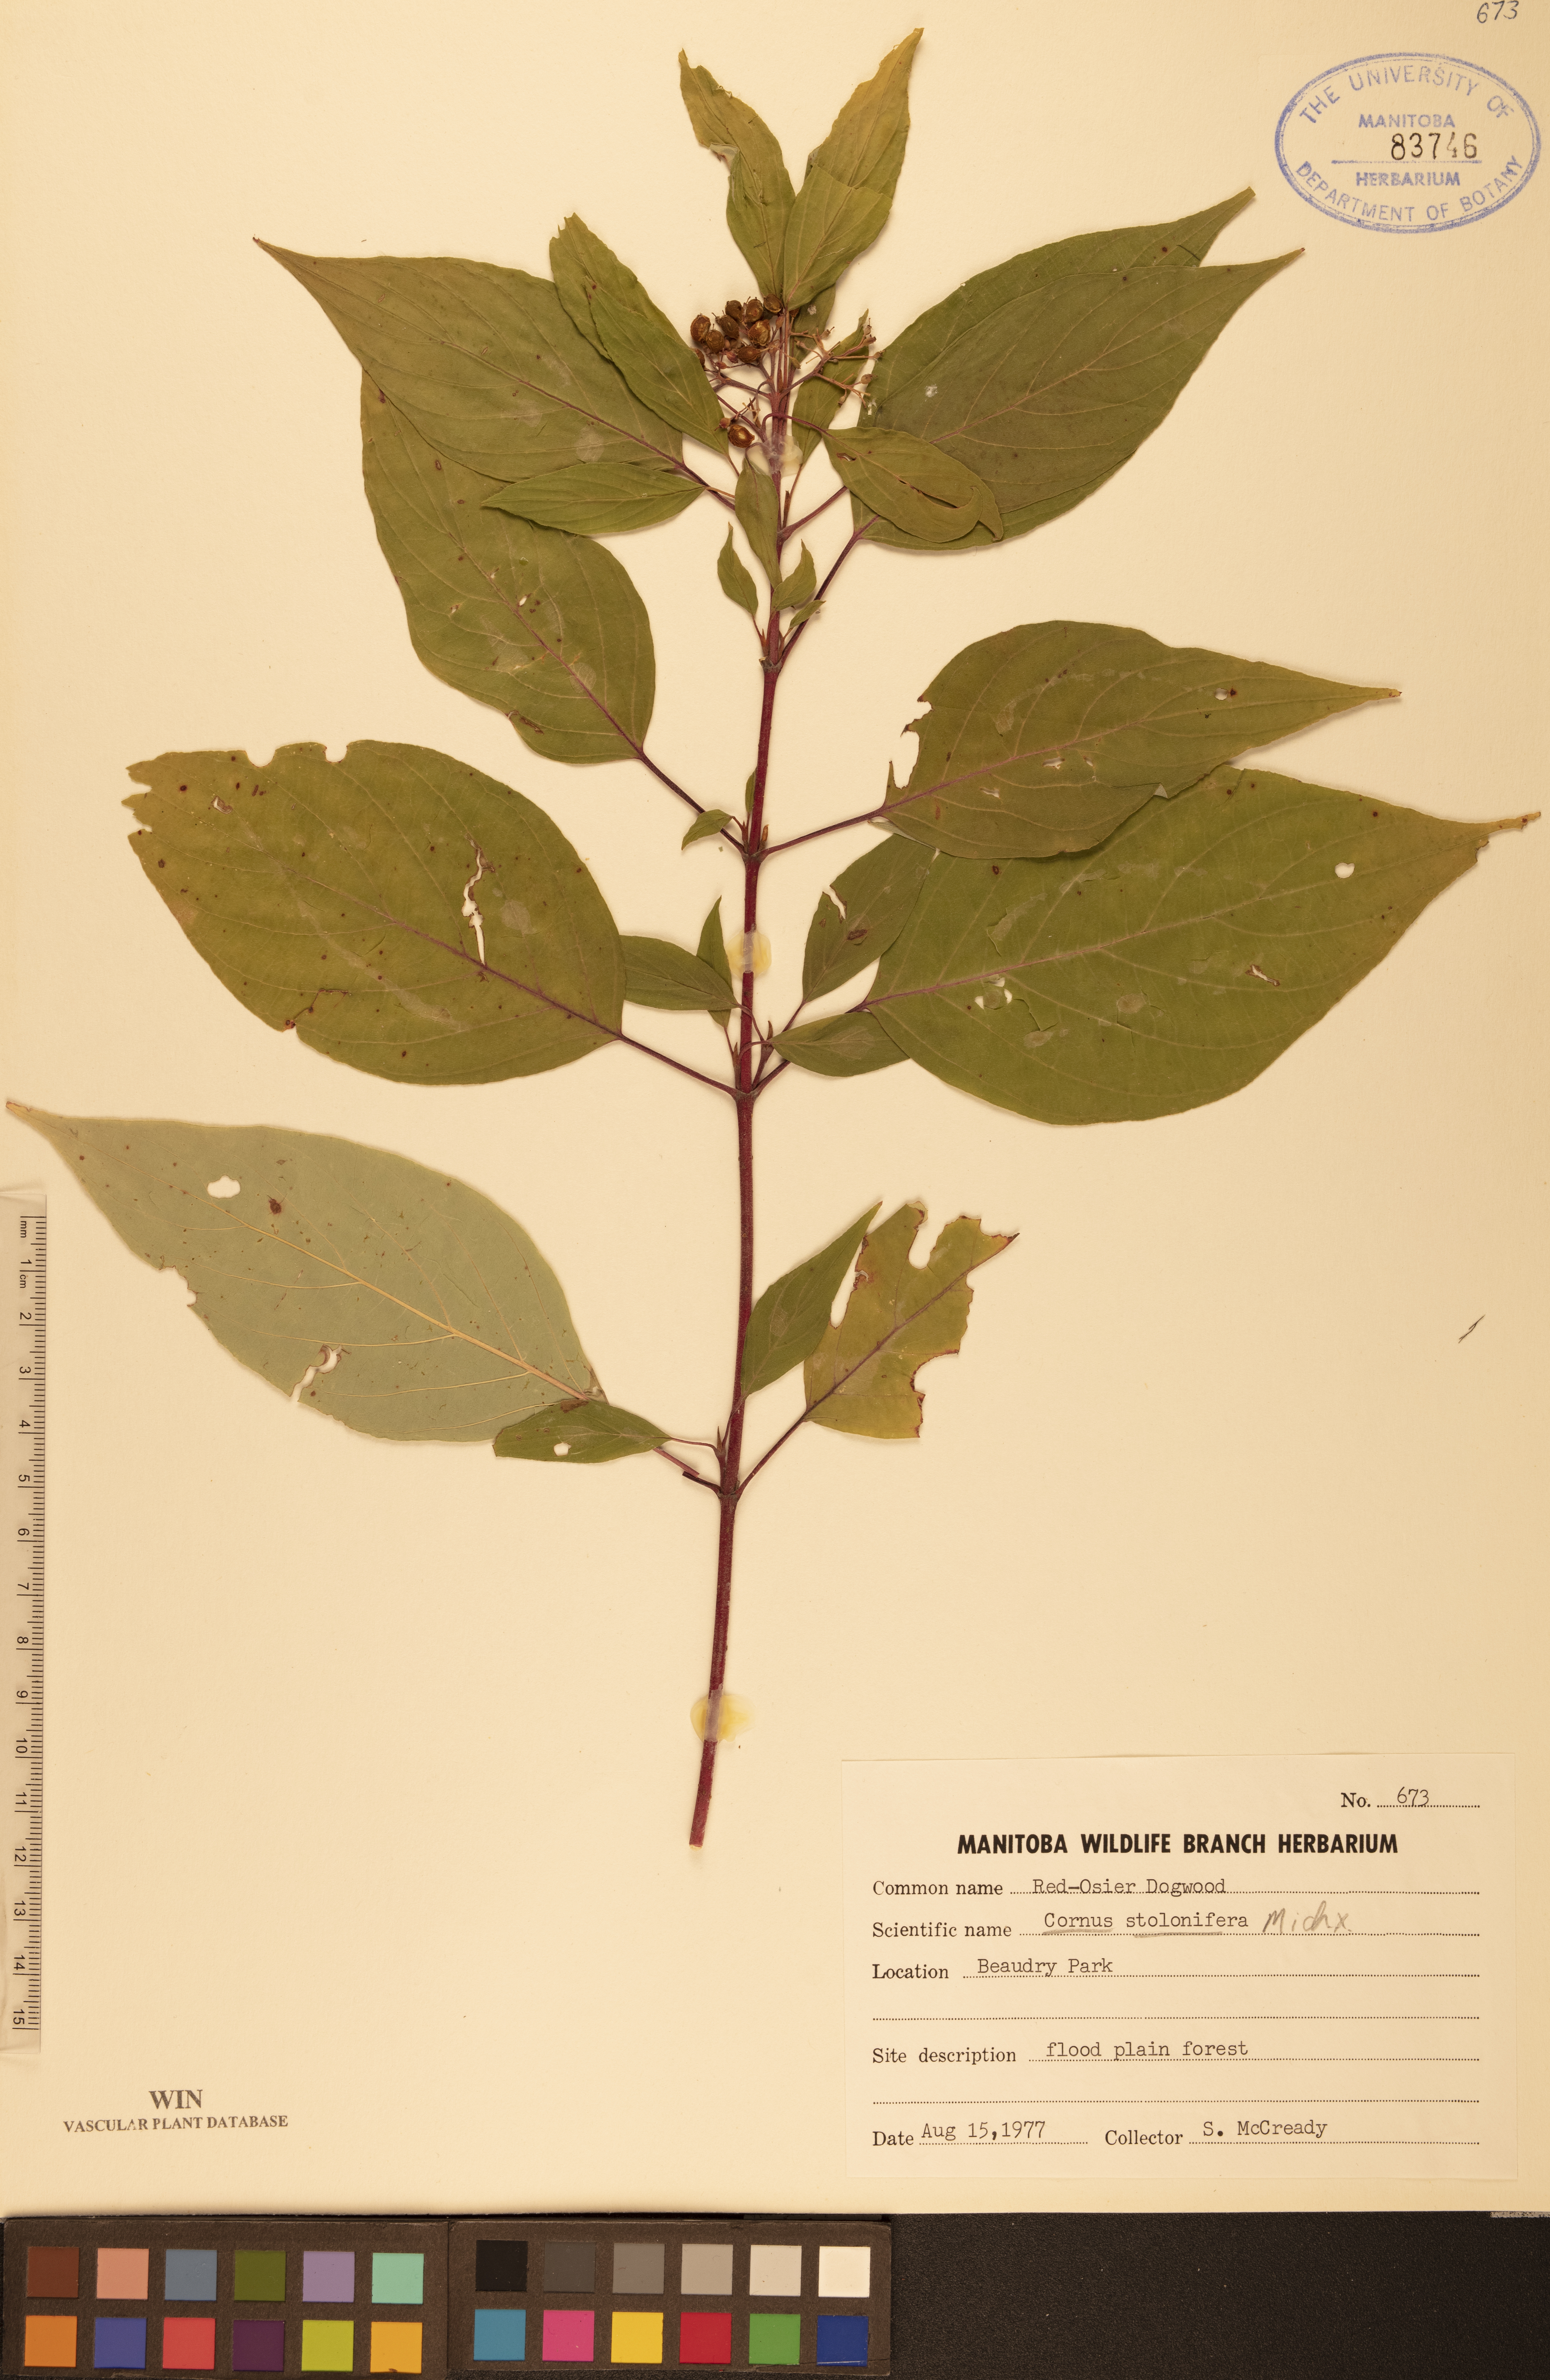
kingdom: Plantae
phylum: Tracheophyta
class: Magnoliopsida
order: Cornales
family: Cornaceae
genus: Cornus
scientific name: Cornus sericea
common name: Red-osier dogwood
